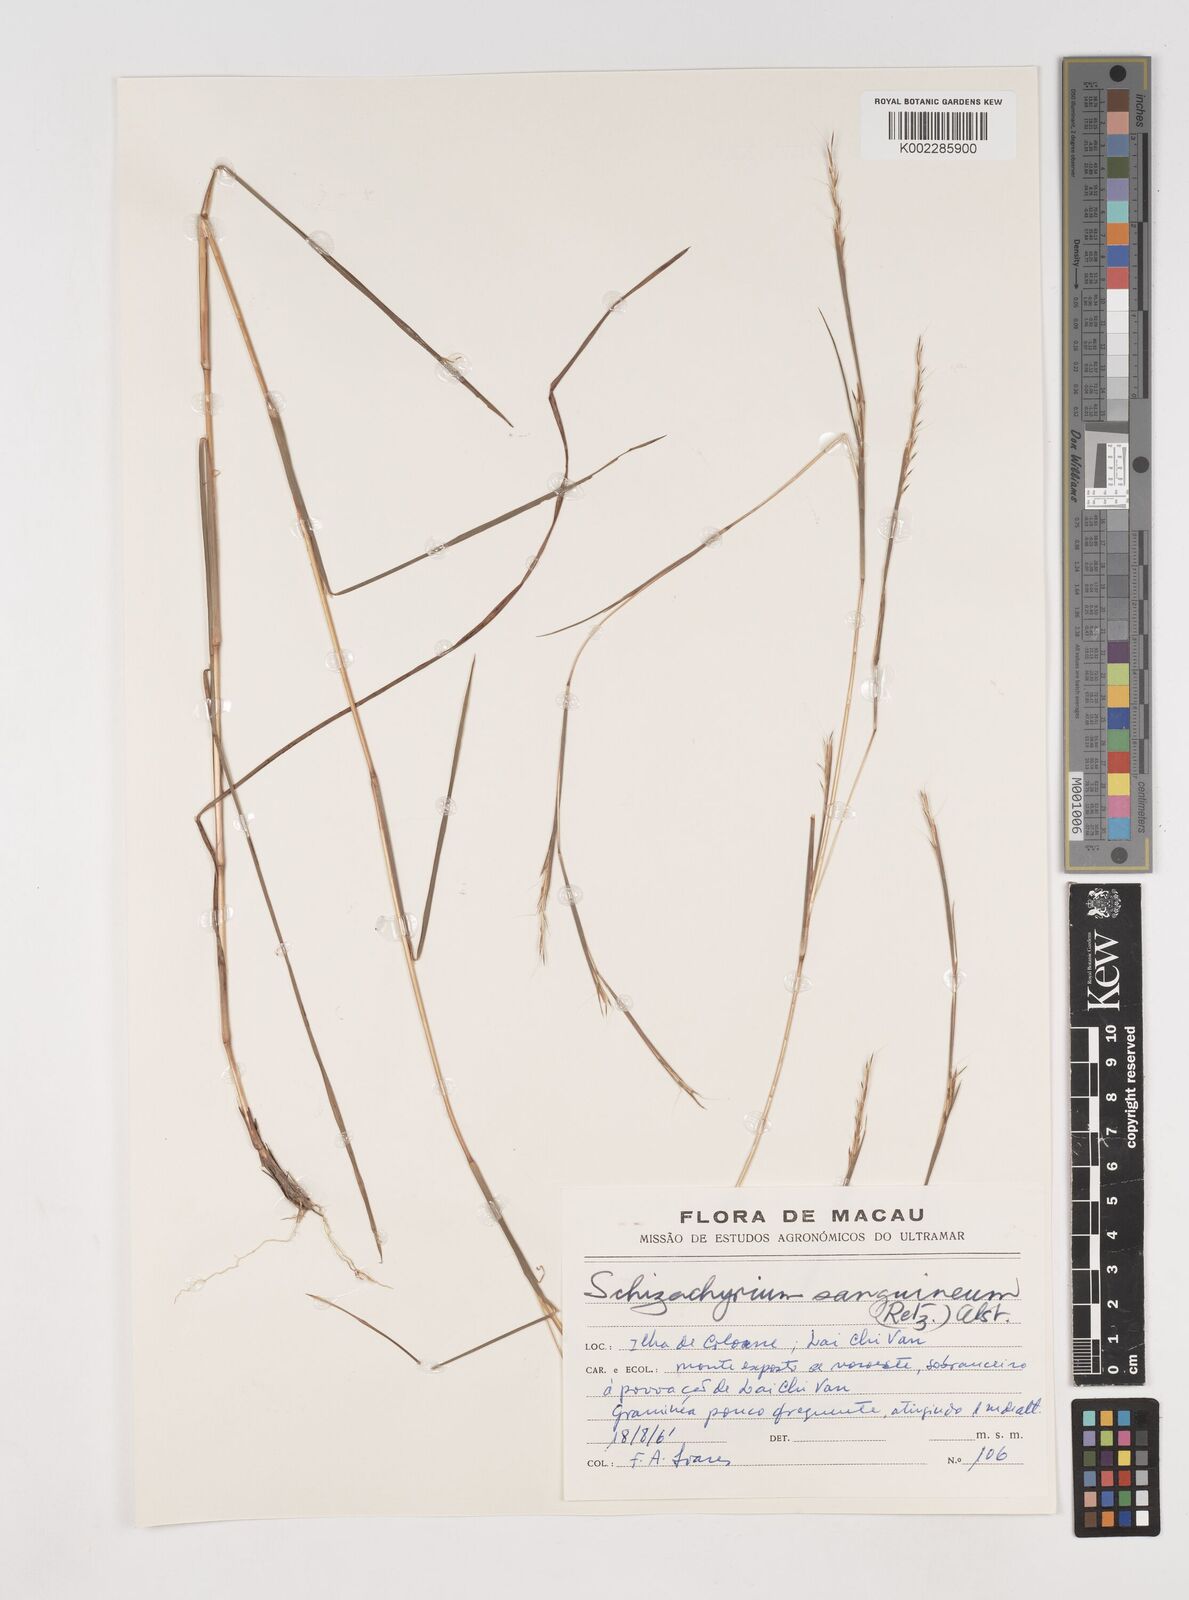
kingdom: Plantae
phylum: Tracheophyta
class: Liliopsida
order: Poales
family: Poaceae
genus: Schizachyrium
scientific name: Schizachyrium sanguineum
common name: Crimson bluestem
